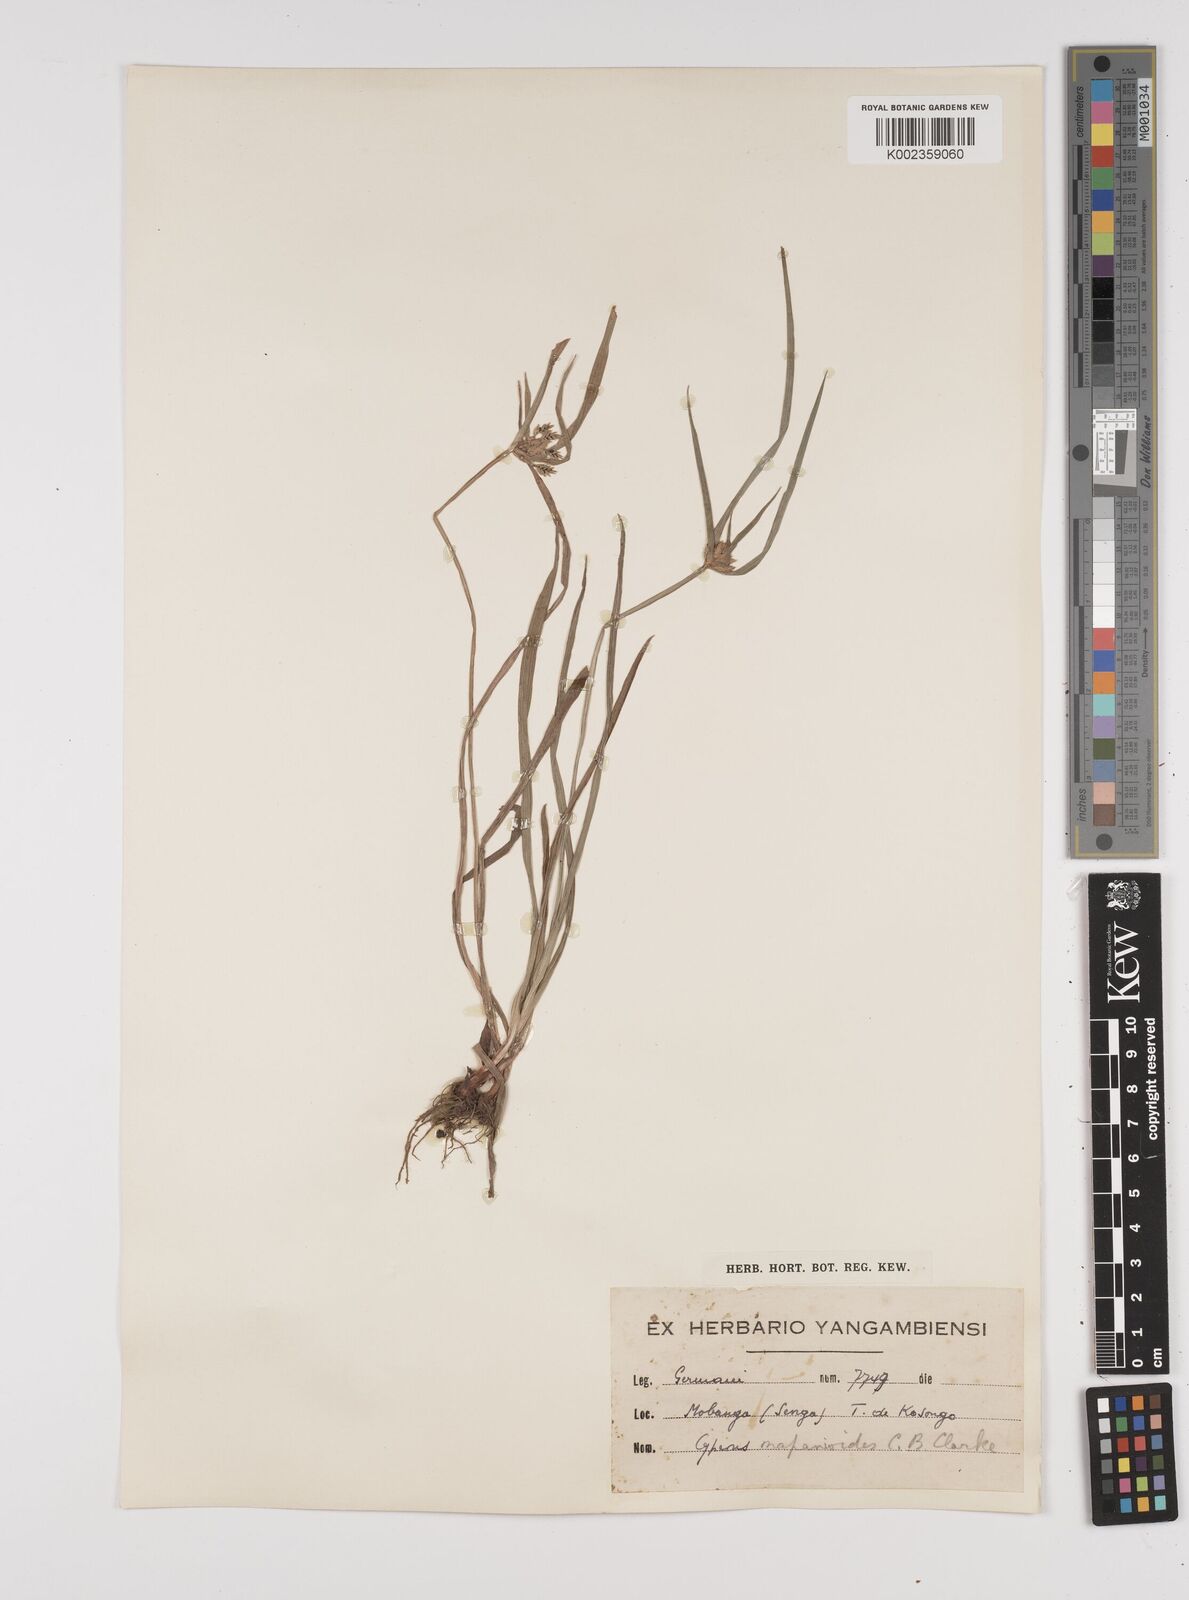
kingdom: Plantae
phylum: Tracheophyta
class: Liliopsida
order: Poales
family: Cyperaceae
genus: Cyperus
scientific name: Cyperus mapanioides
